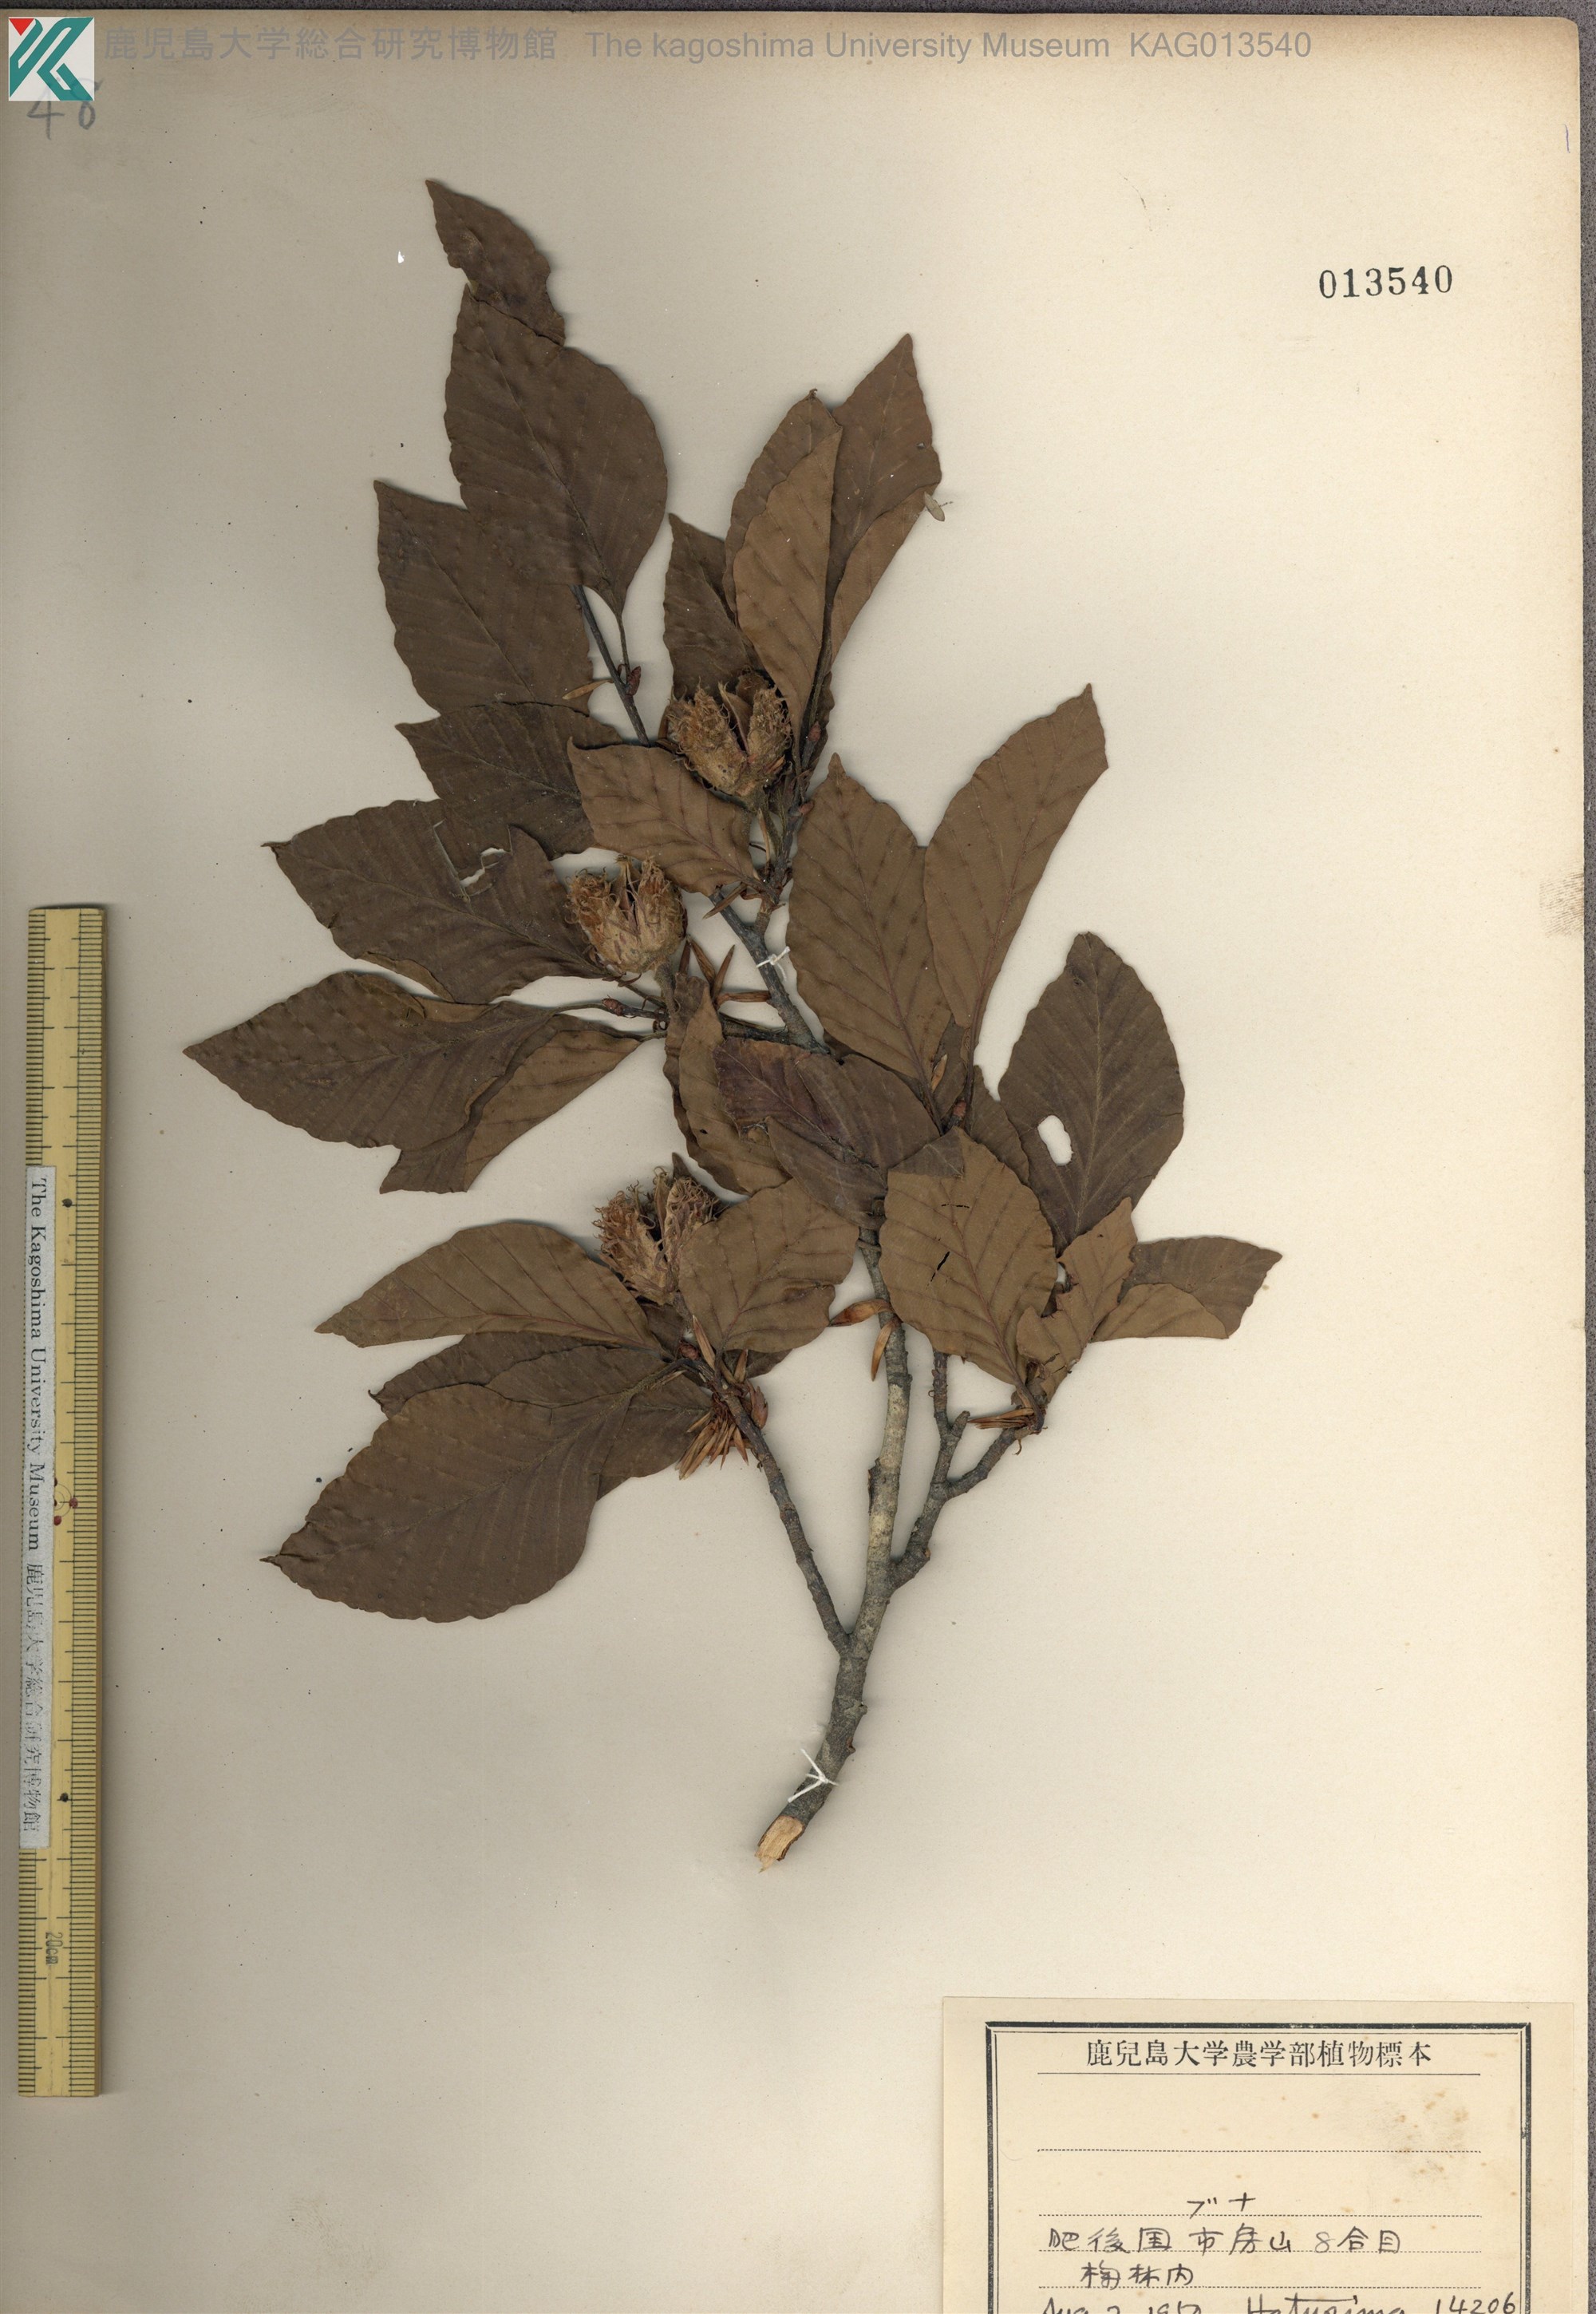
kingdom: Plantae
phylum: Tracheophyta
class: Magnoliopsida
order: Fagales
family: Fagaceae
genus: Fagus
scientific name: Fagus crenata
